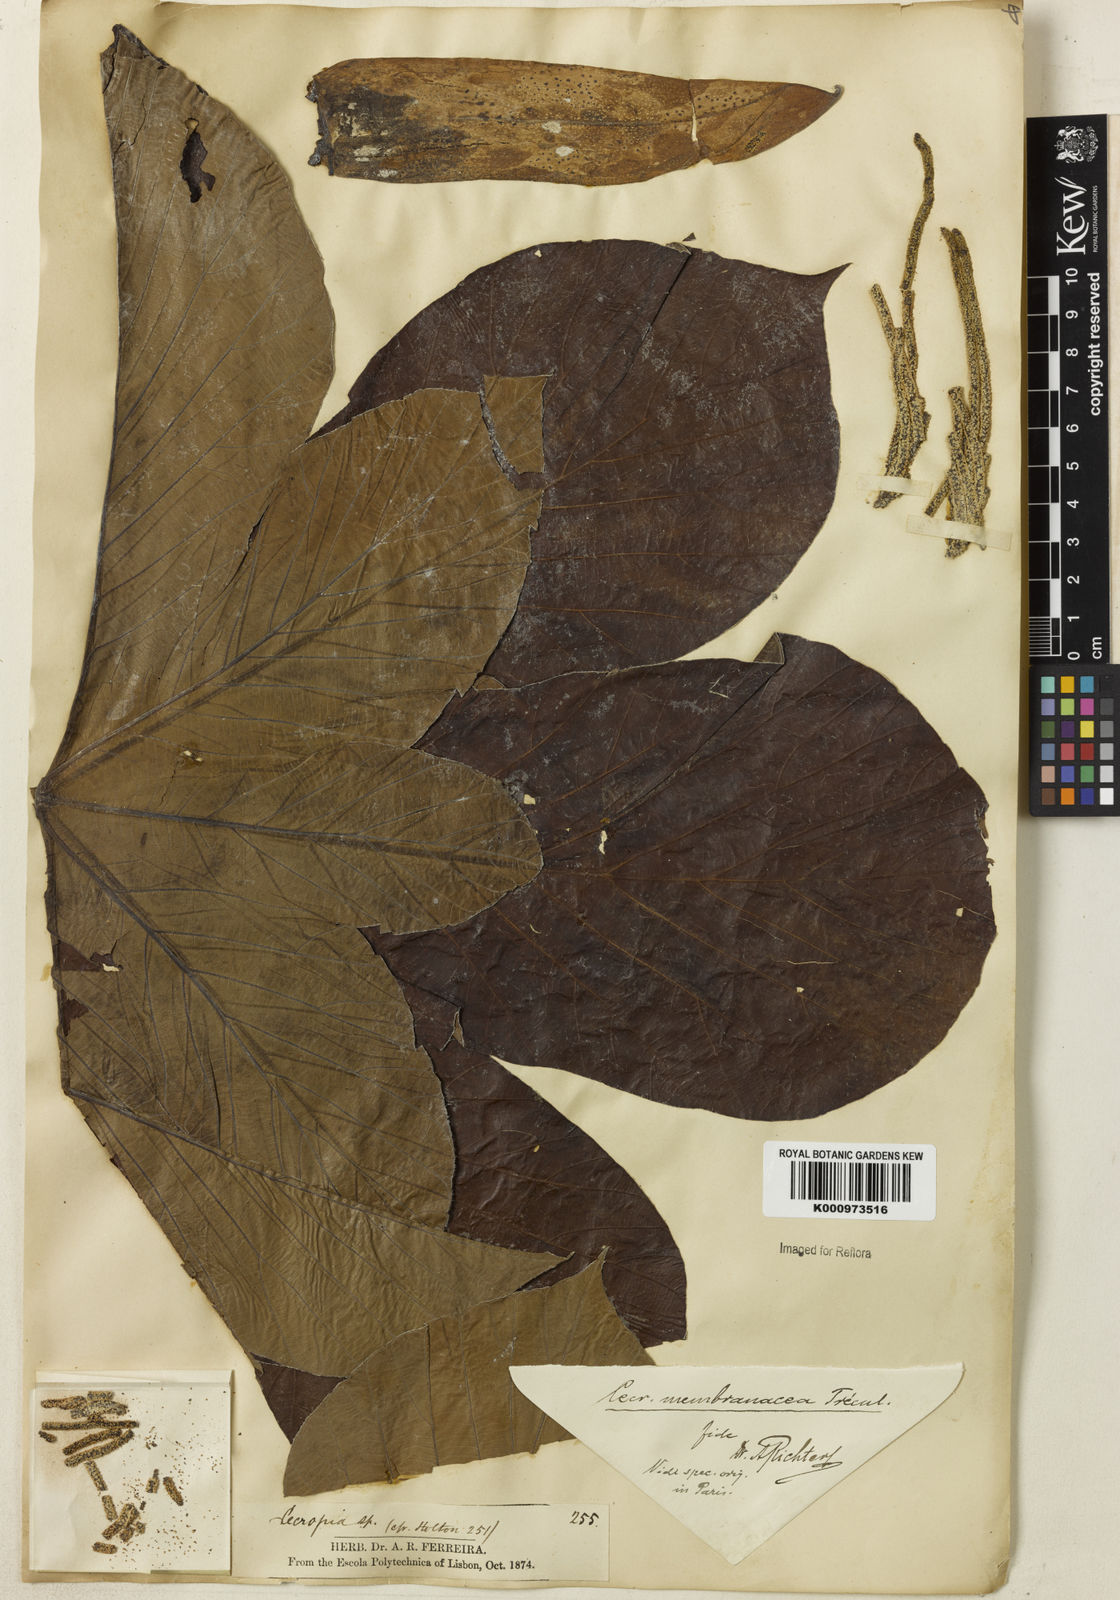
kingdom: Plantae
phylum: Tracheophyta
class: Magnoliopsida
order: Rosales
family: Urticaceae
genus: Cecropia
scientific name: Cecropia
